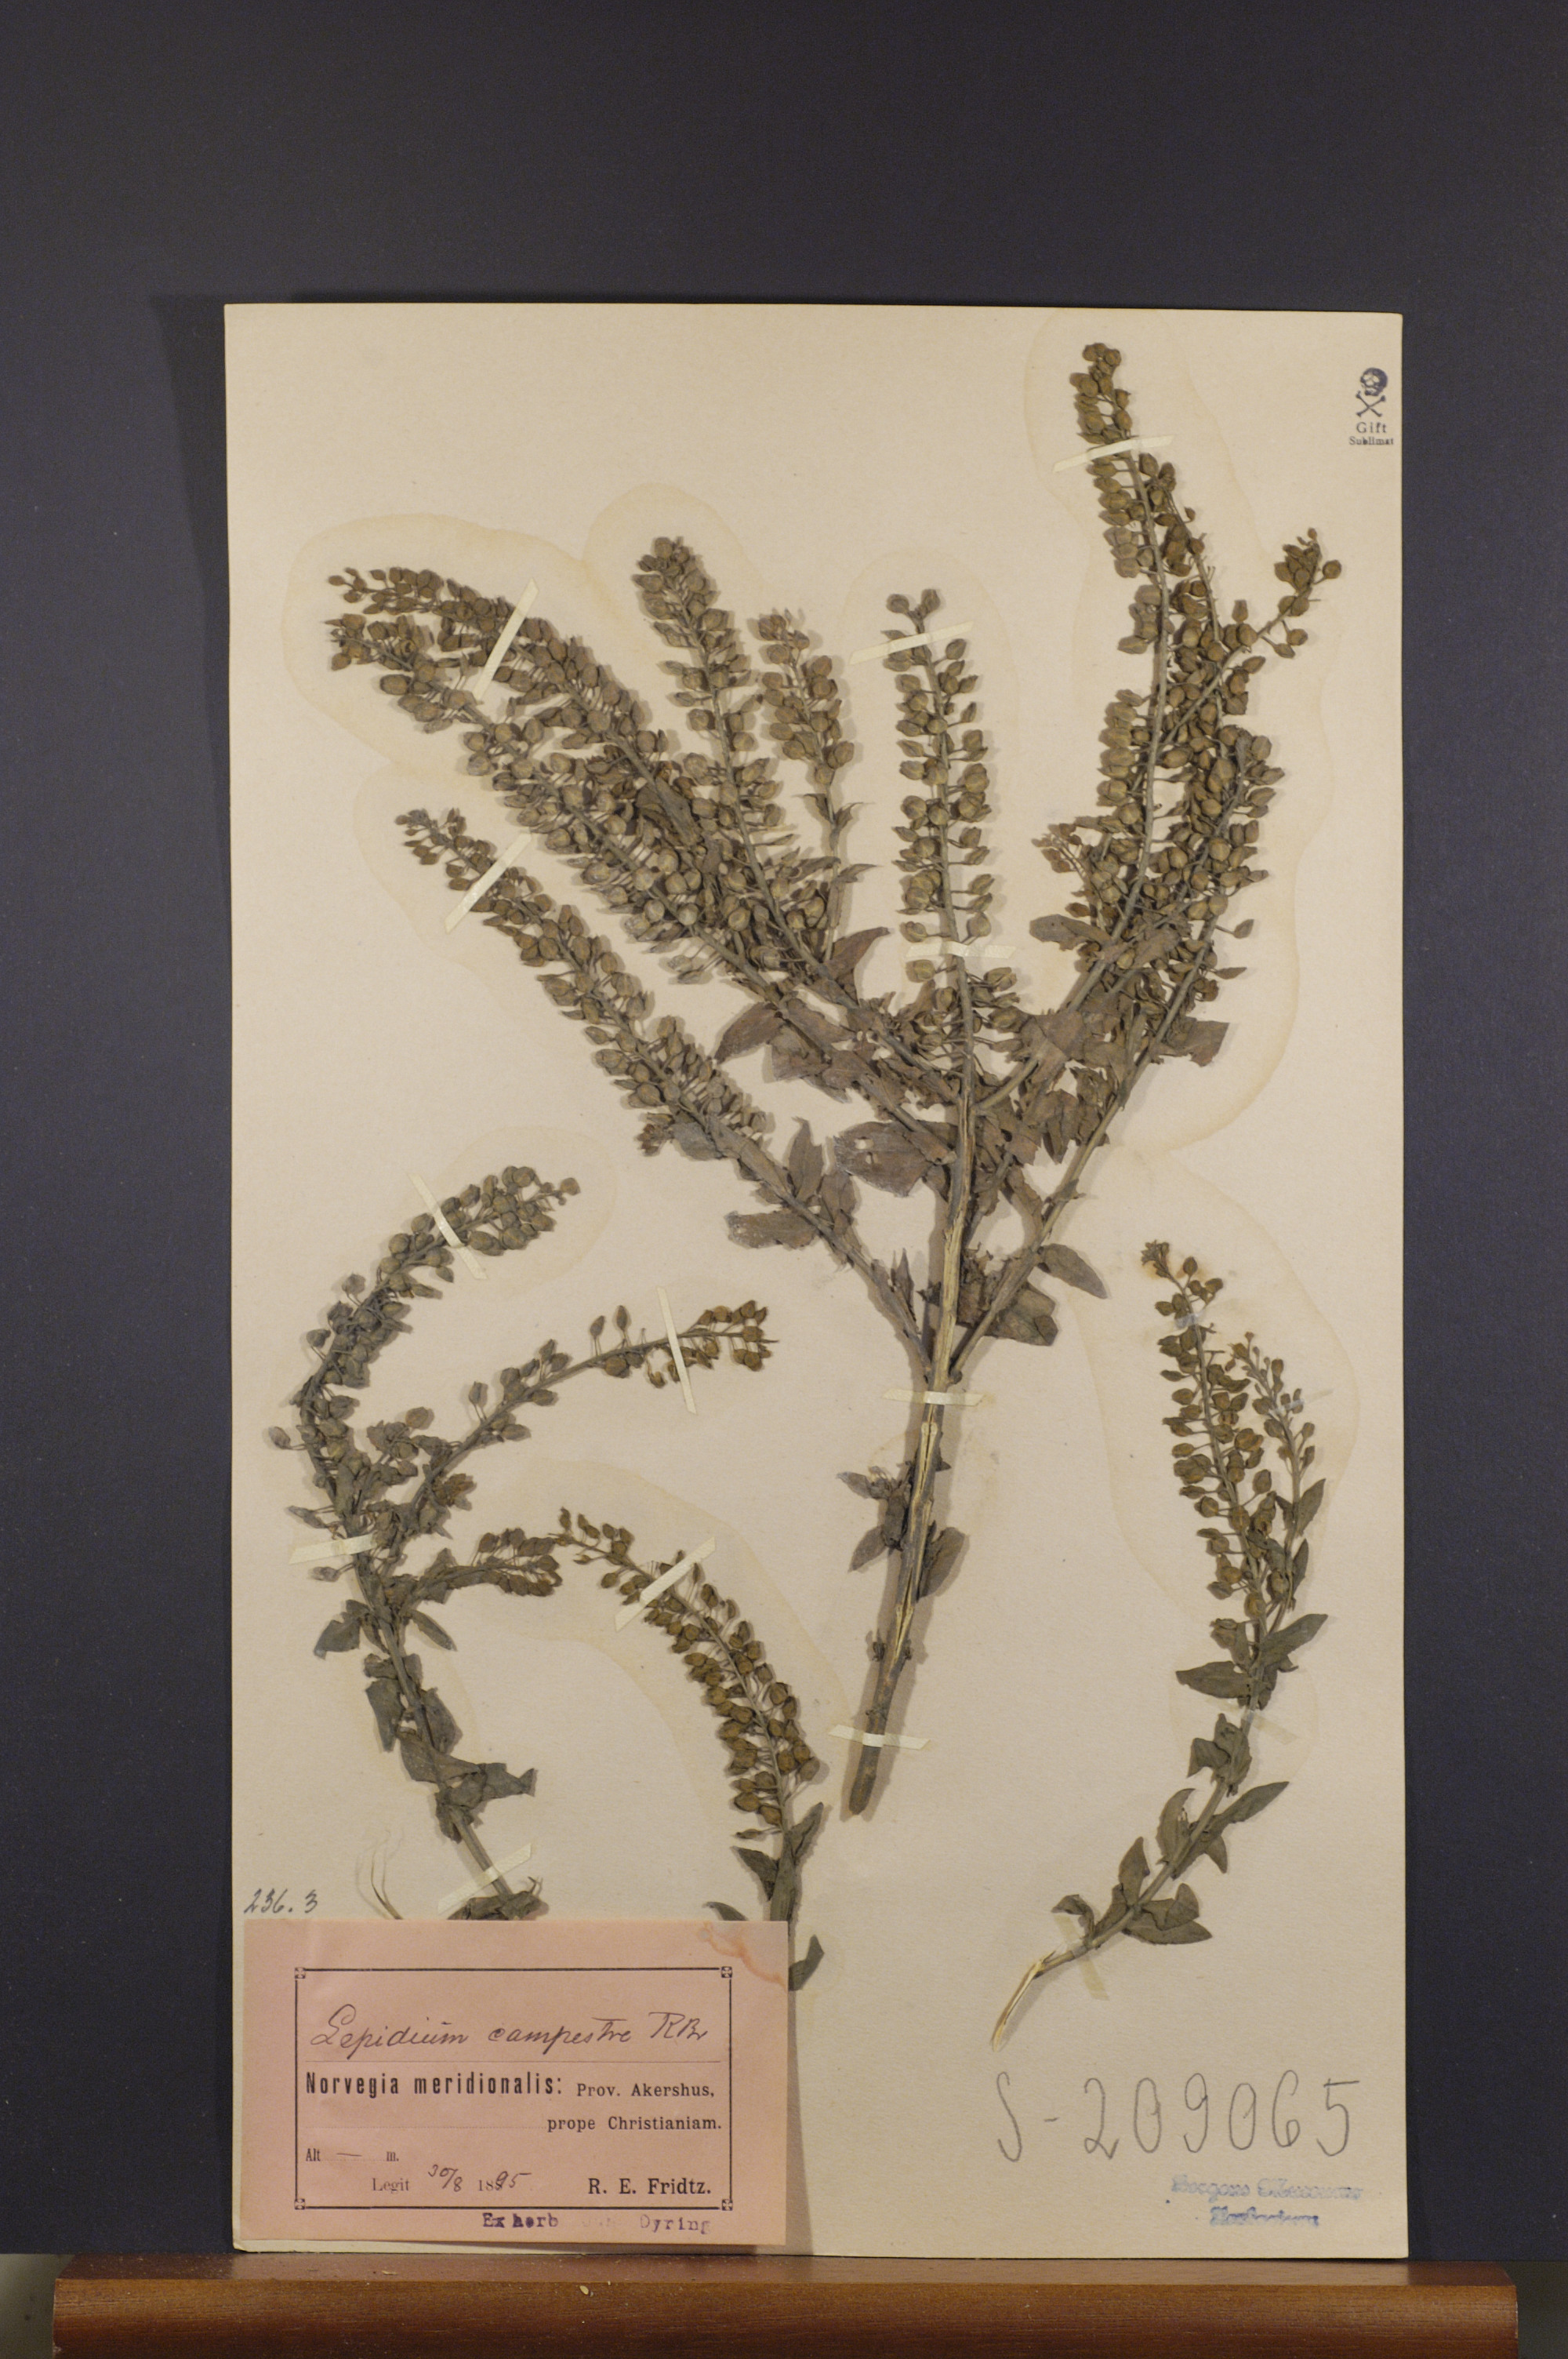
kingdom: Plantae
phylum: Tracheophyta
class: Magnoliopsida
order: Brassicales
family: Brassicaceae
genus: Lepidium
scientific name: Lepidium campestre
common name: Field pepperwort
